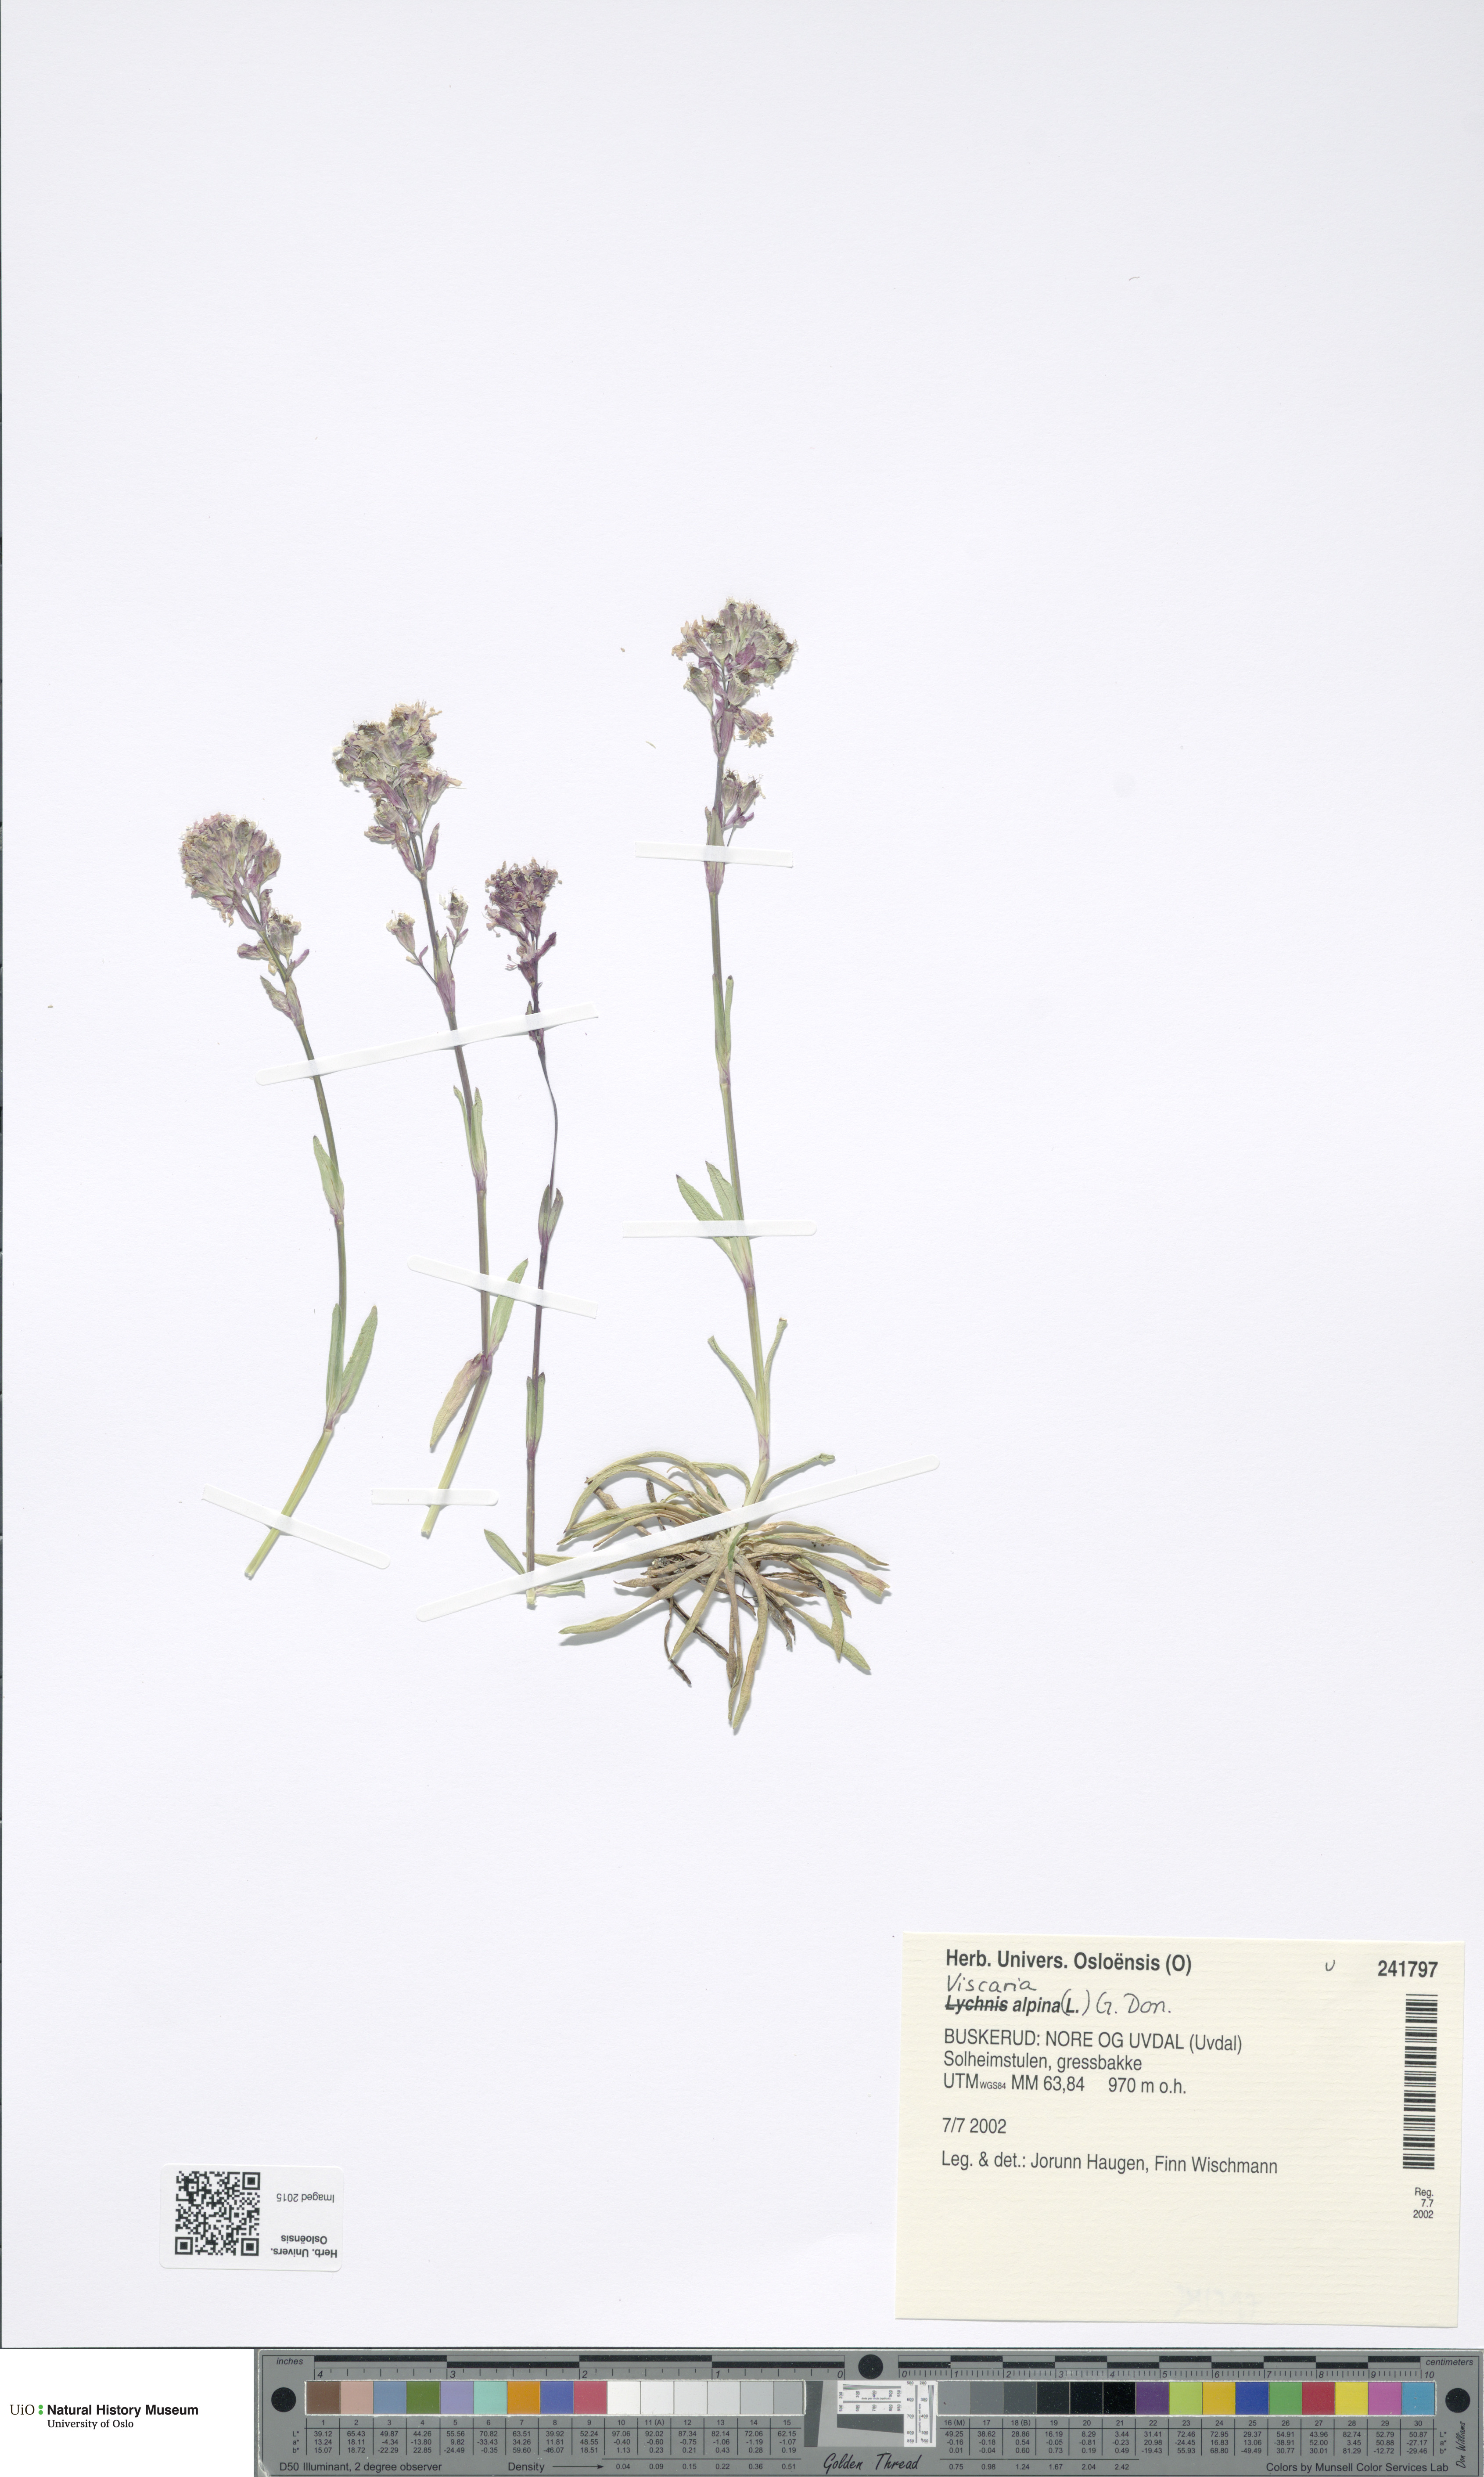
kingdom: Plantae
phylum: Tracheophyta
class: Magnoliopsida
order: Caryophyllales
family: Caryophyllaceae
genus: Viscaria
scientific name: Viscaria alpina
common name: Alpine campion
